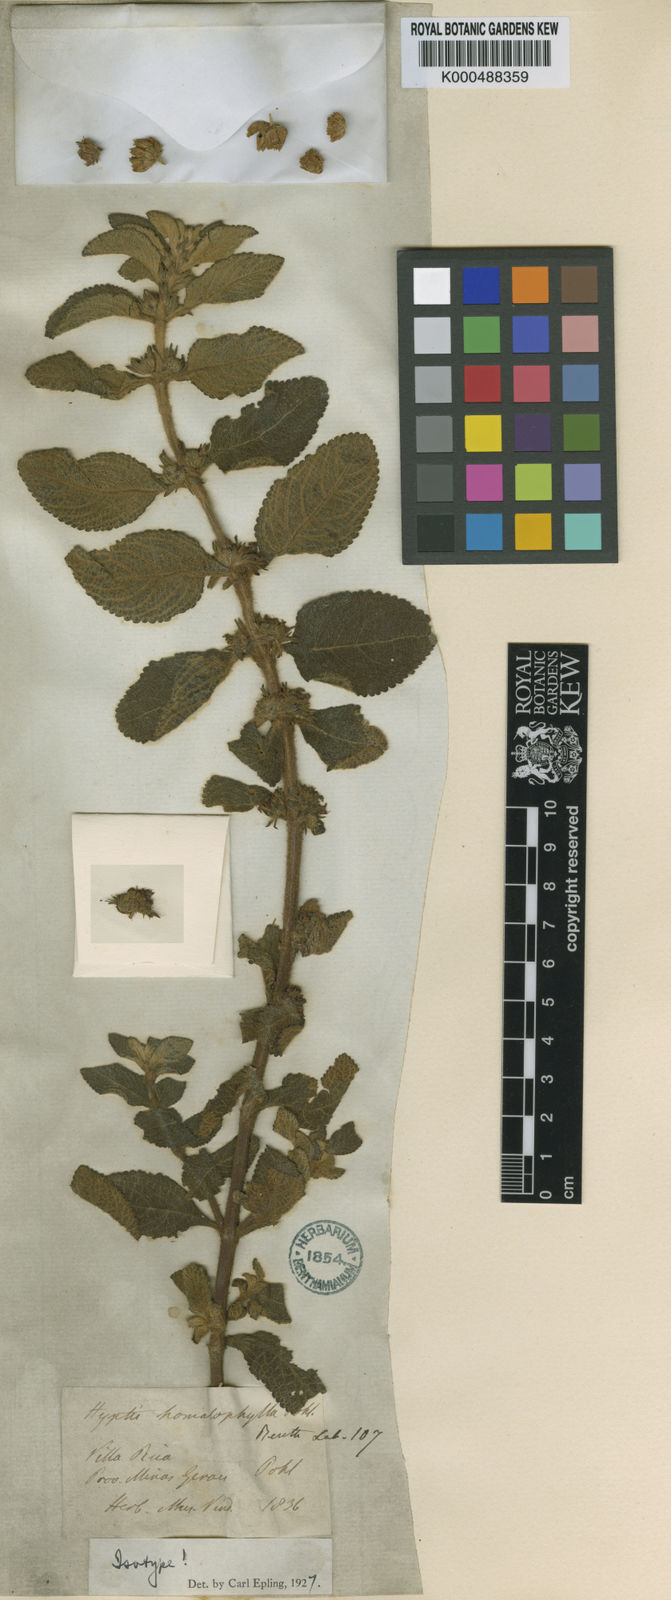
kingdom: Plantae
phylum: Tracheophyta
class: Magnoliopsida
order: Lamiales
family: Lamiaceae
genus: Hyptis
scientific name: Hyptis homalophylla
